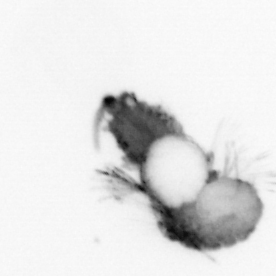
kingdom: Animalia
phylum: Annelida
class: Polychaeta
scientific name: Polychaeta
